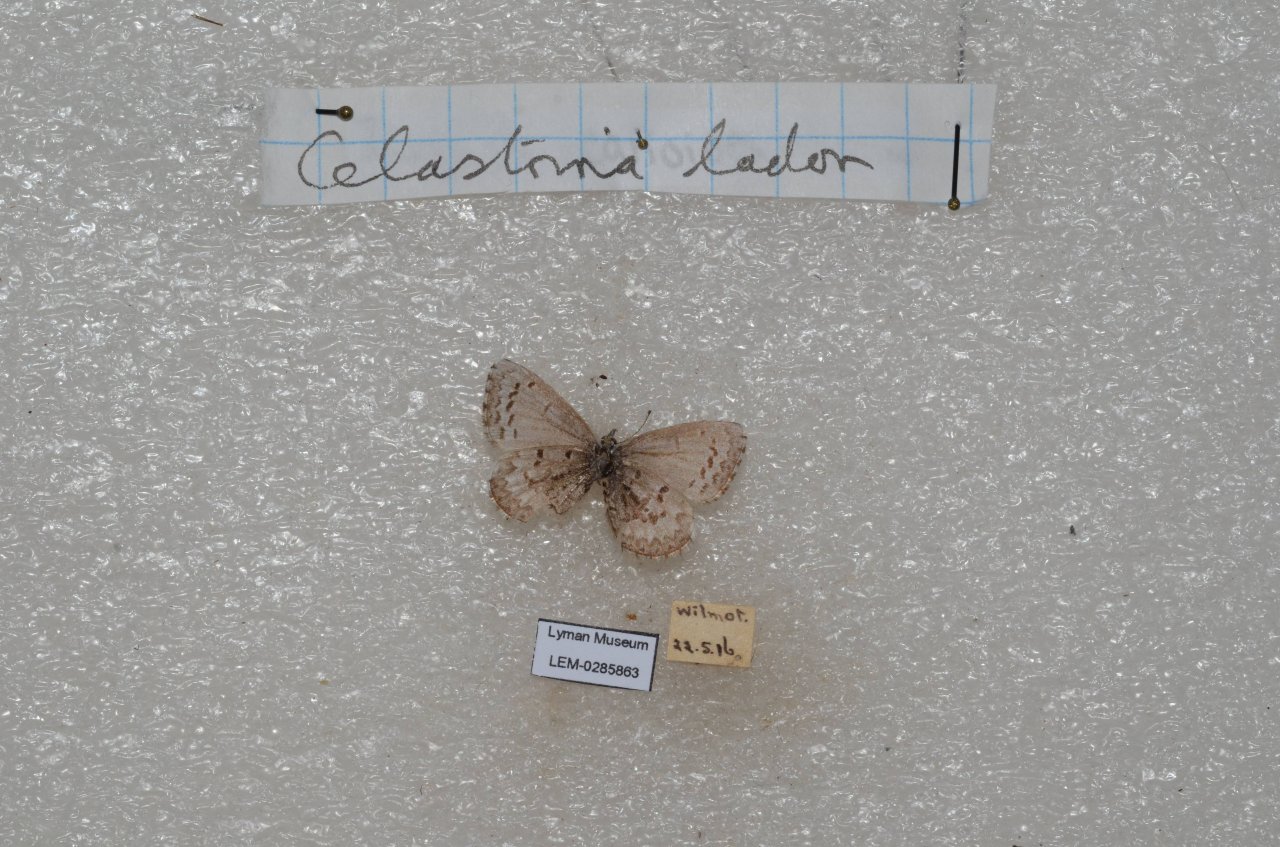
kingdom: Animalia
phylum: Arthropoda
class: Insecta
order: Lepidoptera
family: Lycaenidae
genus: Celastrina
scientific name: Celastrina
